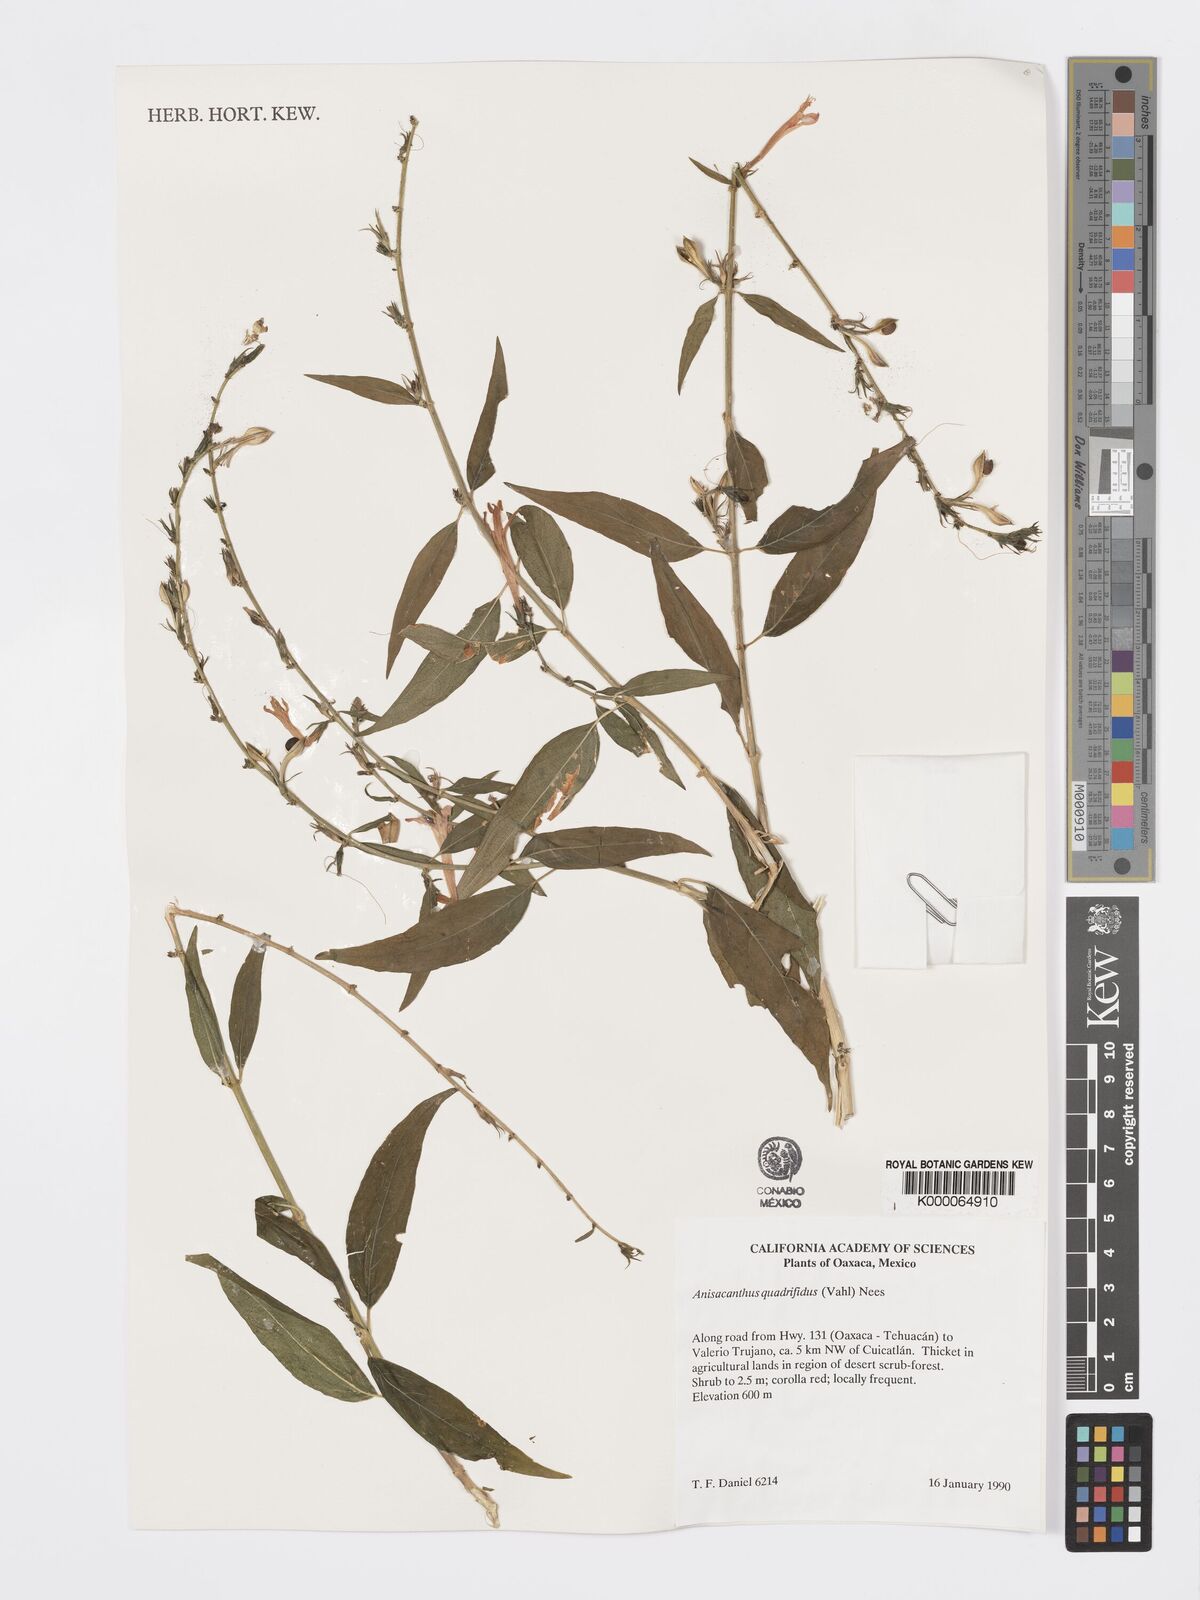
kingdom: Plantae
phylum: Tracheophyta
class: Magnoliopsida
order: Lamiales
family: Acanthaceae
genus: Anisacanthus
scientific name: Anisacanthus quadrifidus
